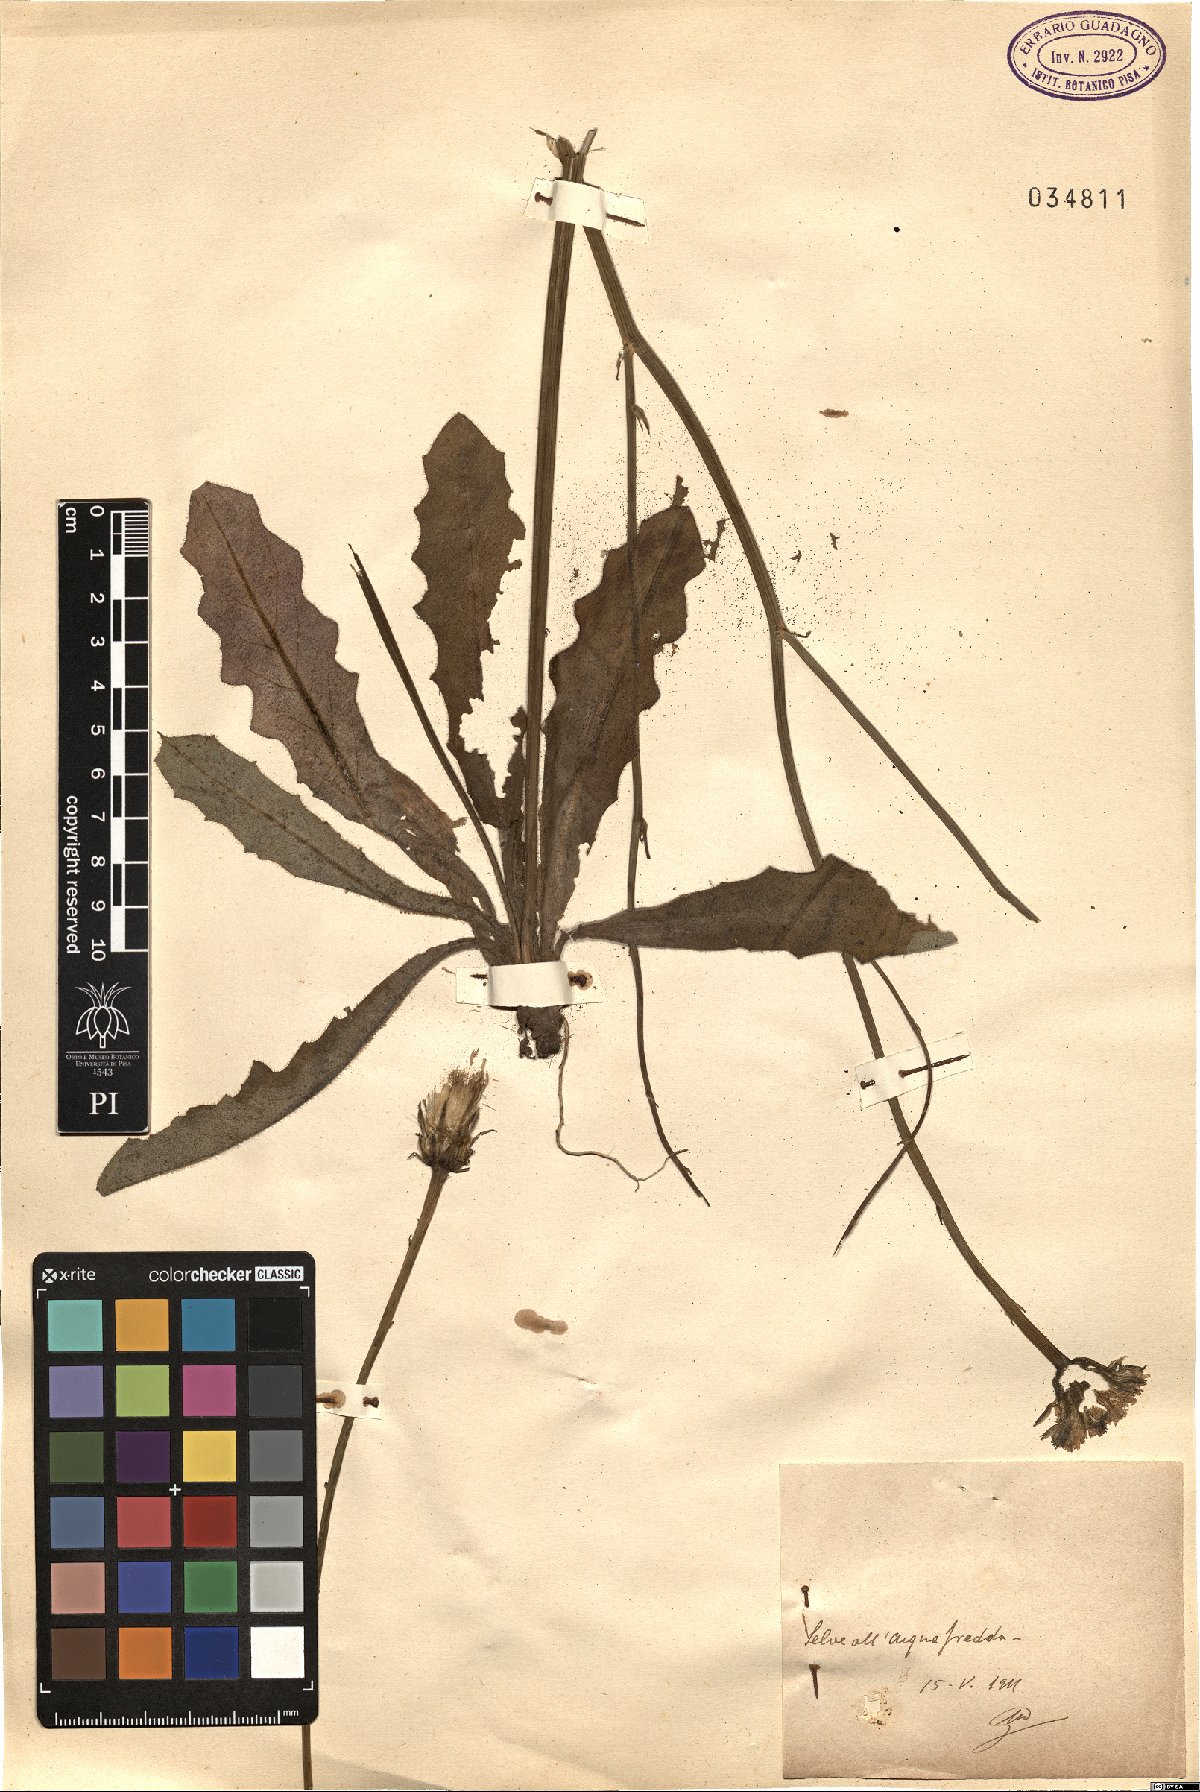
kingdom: Plantae
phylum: Tracheophyta
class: Magnoliopsida
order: Asterales
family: Asteraceae
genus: Hypochaeris
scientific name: Hypochaeris
